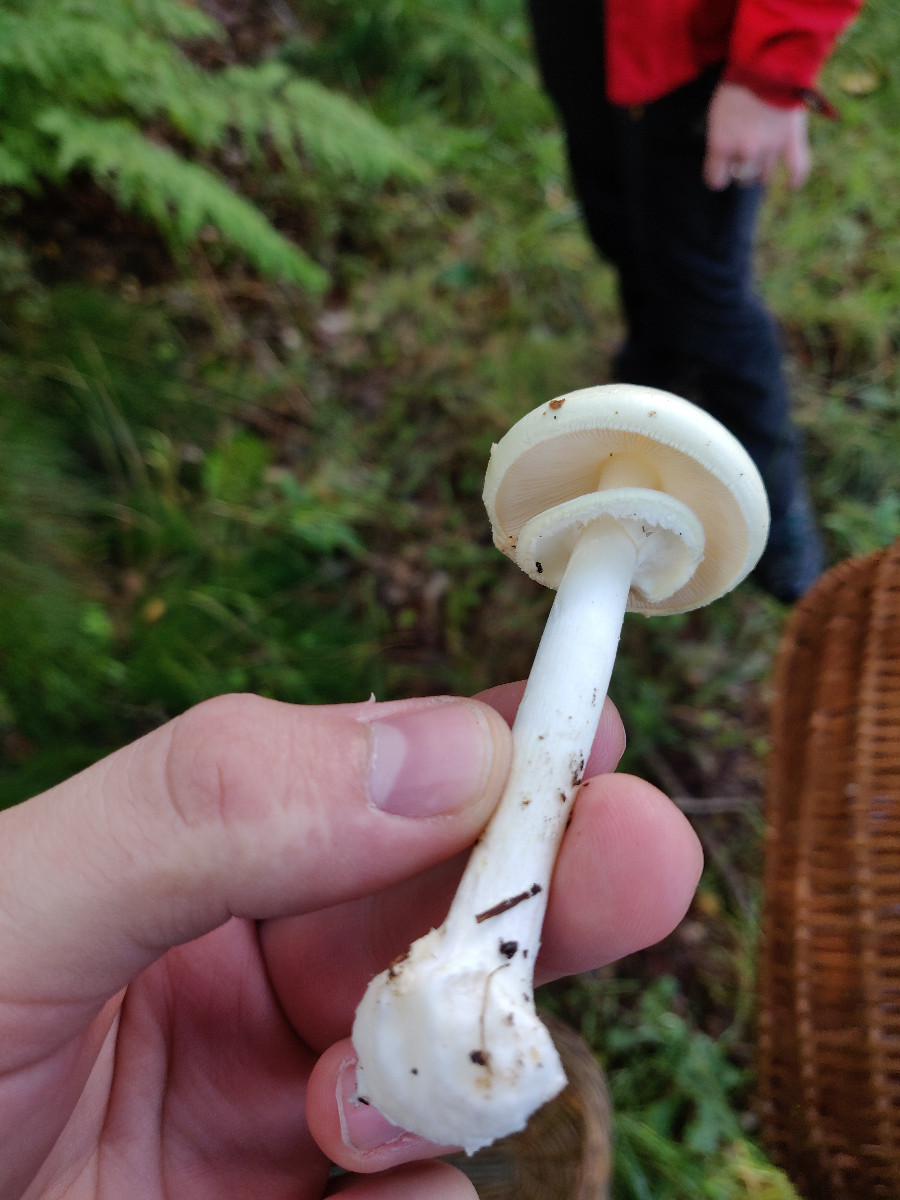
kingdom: Fungi
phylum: Basidiomycota
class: Agaricomycetes
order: Agaricales
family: Amanitaceae
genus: Amanita
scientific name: Amanita citrina
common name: False death-cap
